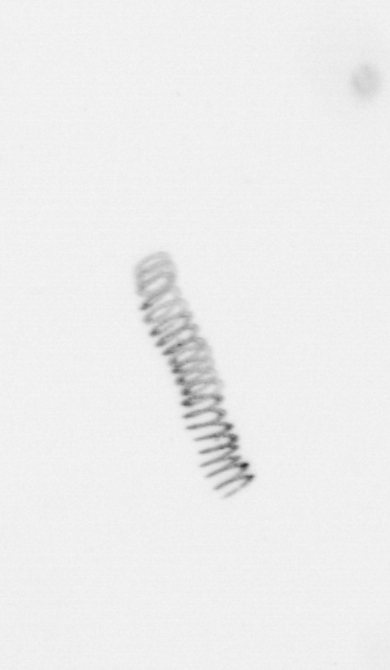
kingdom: Chromista
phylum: Ochrophyta
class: Bacillariophyceae
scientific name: Bacillariophyceae
